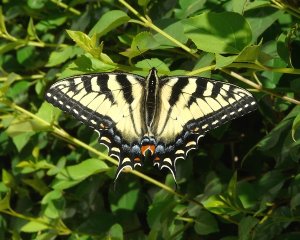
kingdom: Animalia
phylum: Arthropoda
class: Insecta
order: Lepidoptera
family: Papilionidae
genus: Pterourus
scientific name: Pterourus glaucus
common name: Eastern Tiger Swallowtail
